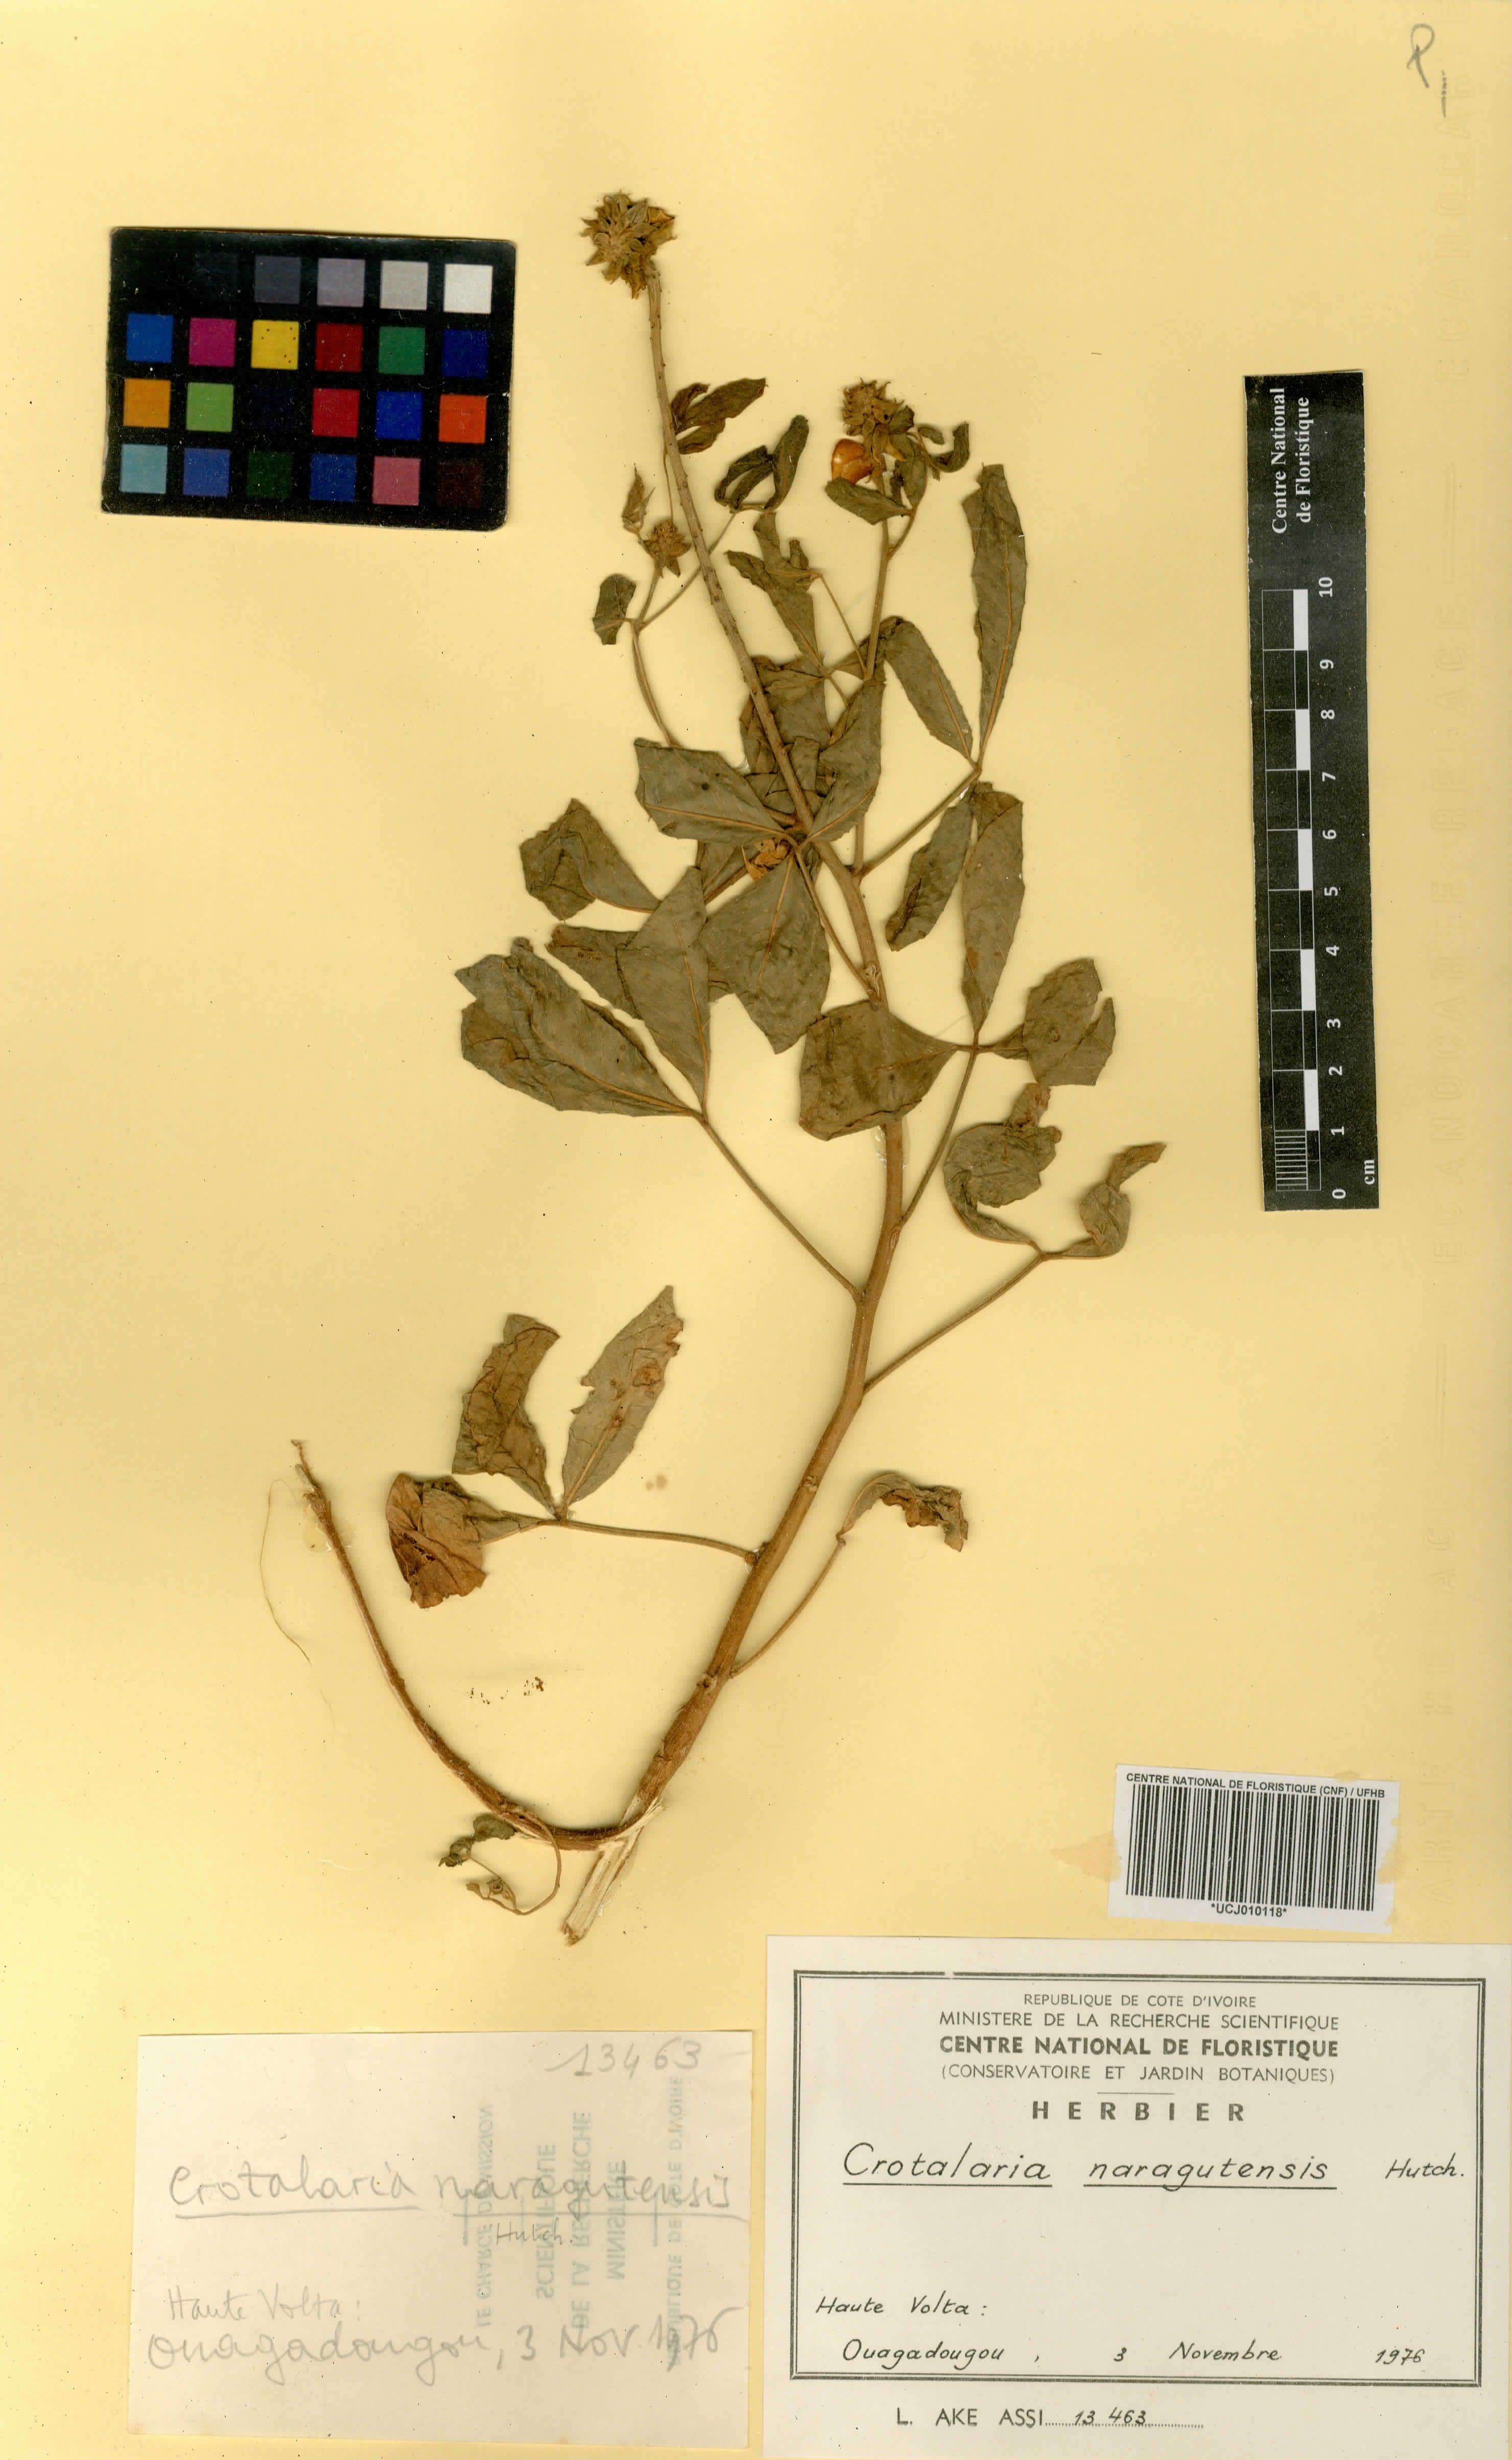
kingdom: Plantae
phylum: Tracheophyta
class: Magnoliopsida
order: Fabales
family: Fabaceae
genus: Crotalaria
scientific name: Crotalaria naragutensis
